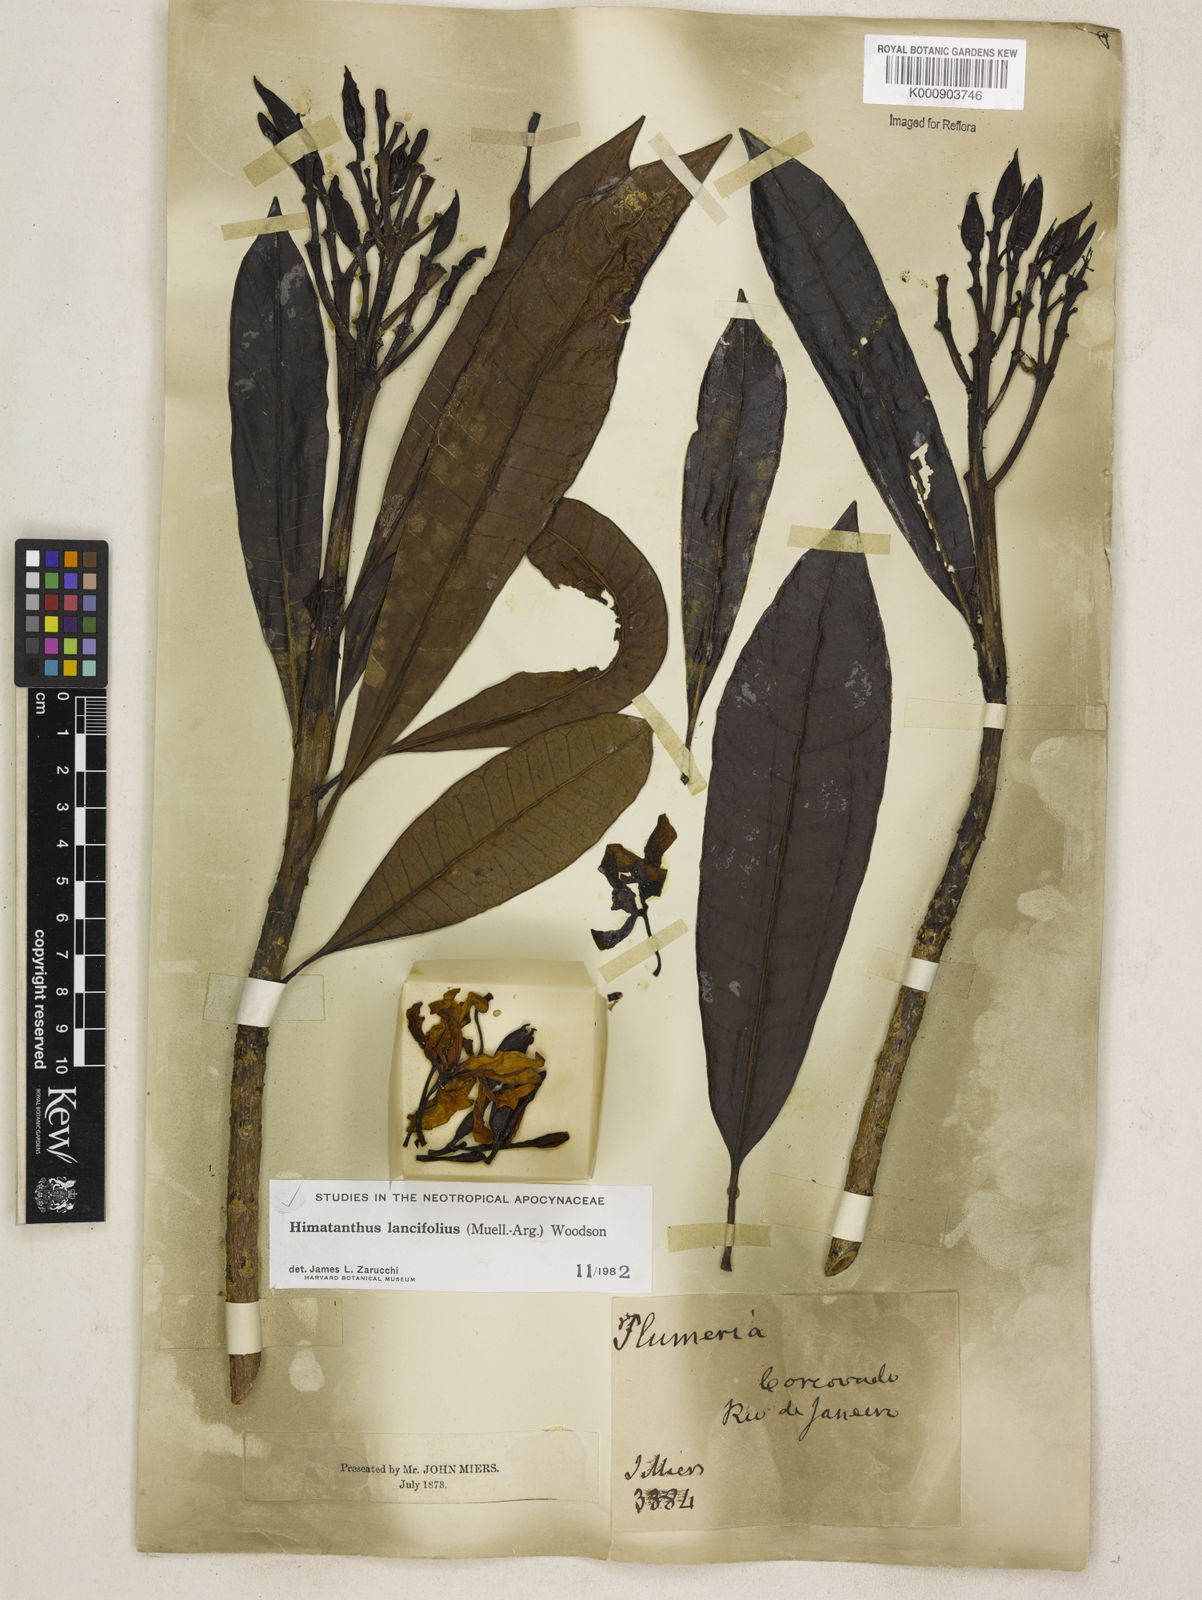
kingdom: Plantae
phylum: Tracheophyta
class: Magnoliopsida
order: Gentianales
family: Apocynaceae
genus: Himatanthus
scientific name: Himatanthus
